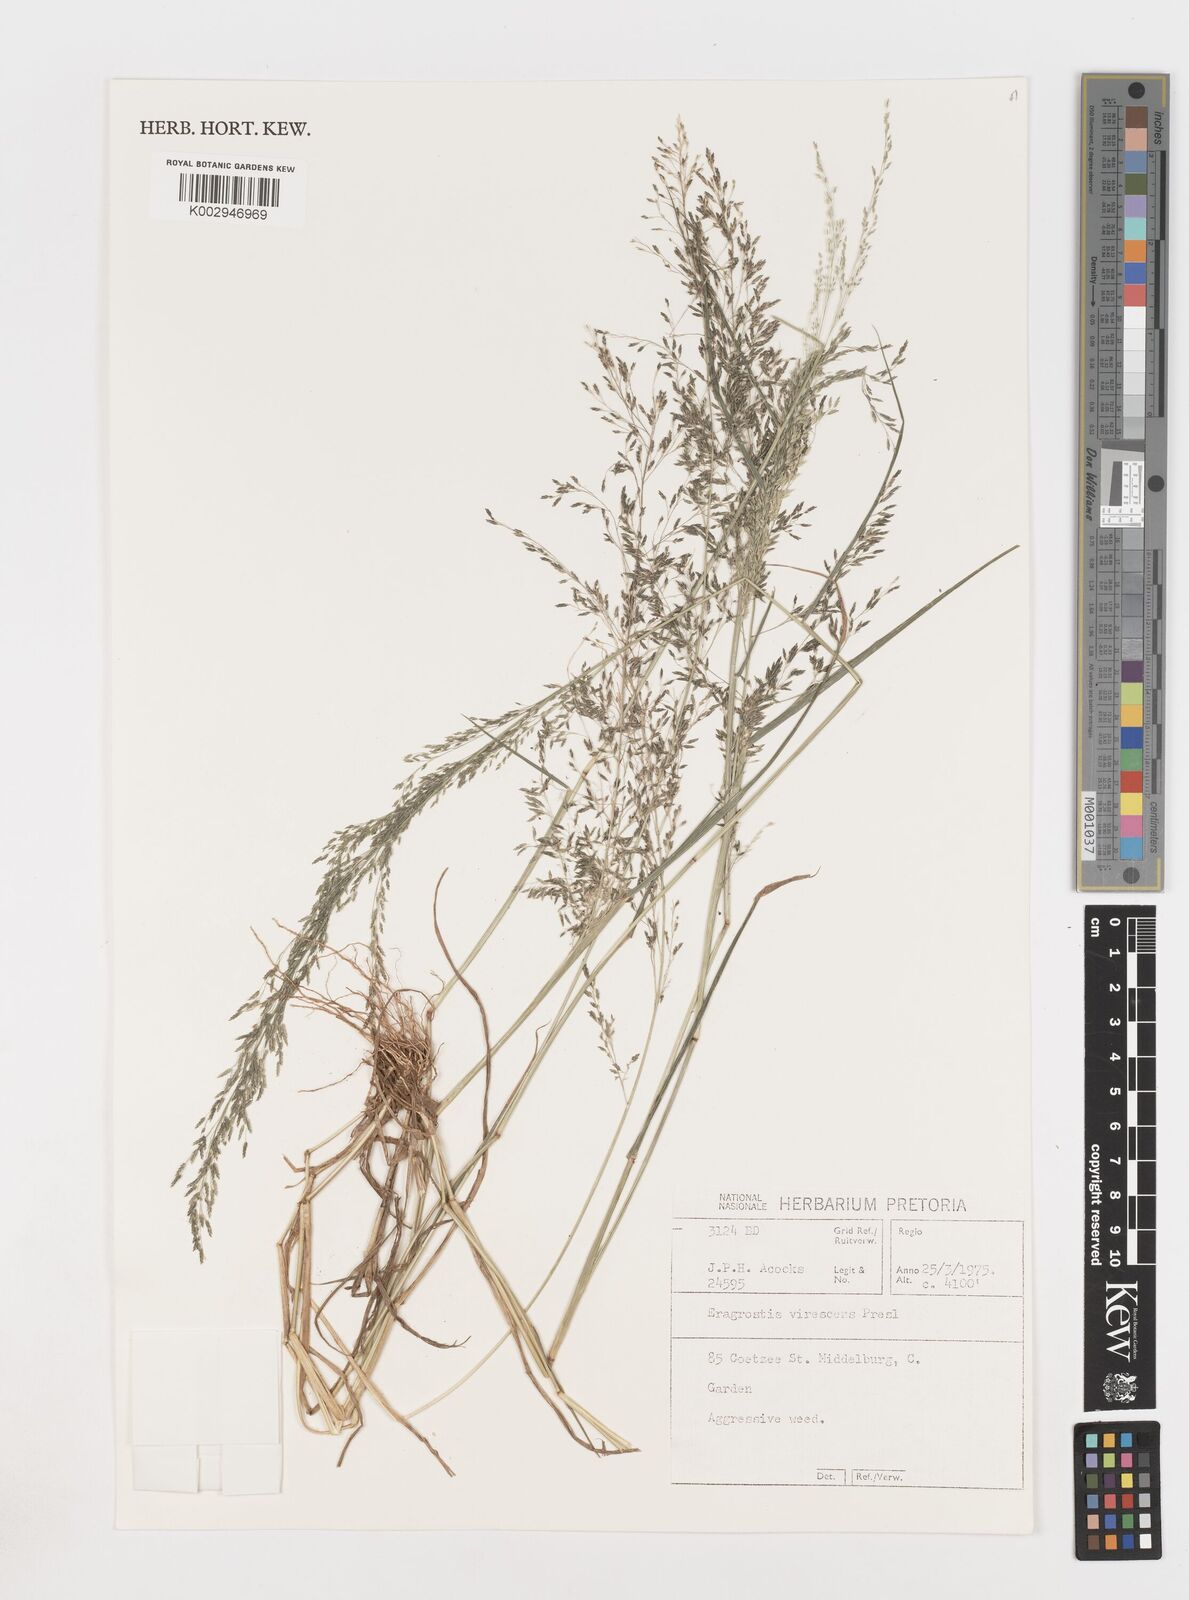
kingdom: Plantae
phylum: Tracheophyta
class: Liliopsida
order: Poales
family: Poaceae
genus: Eragrostis
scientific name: Eragrostis
